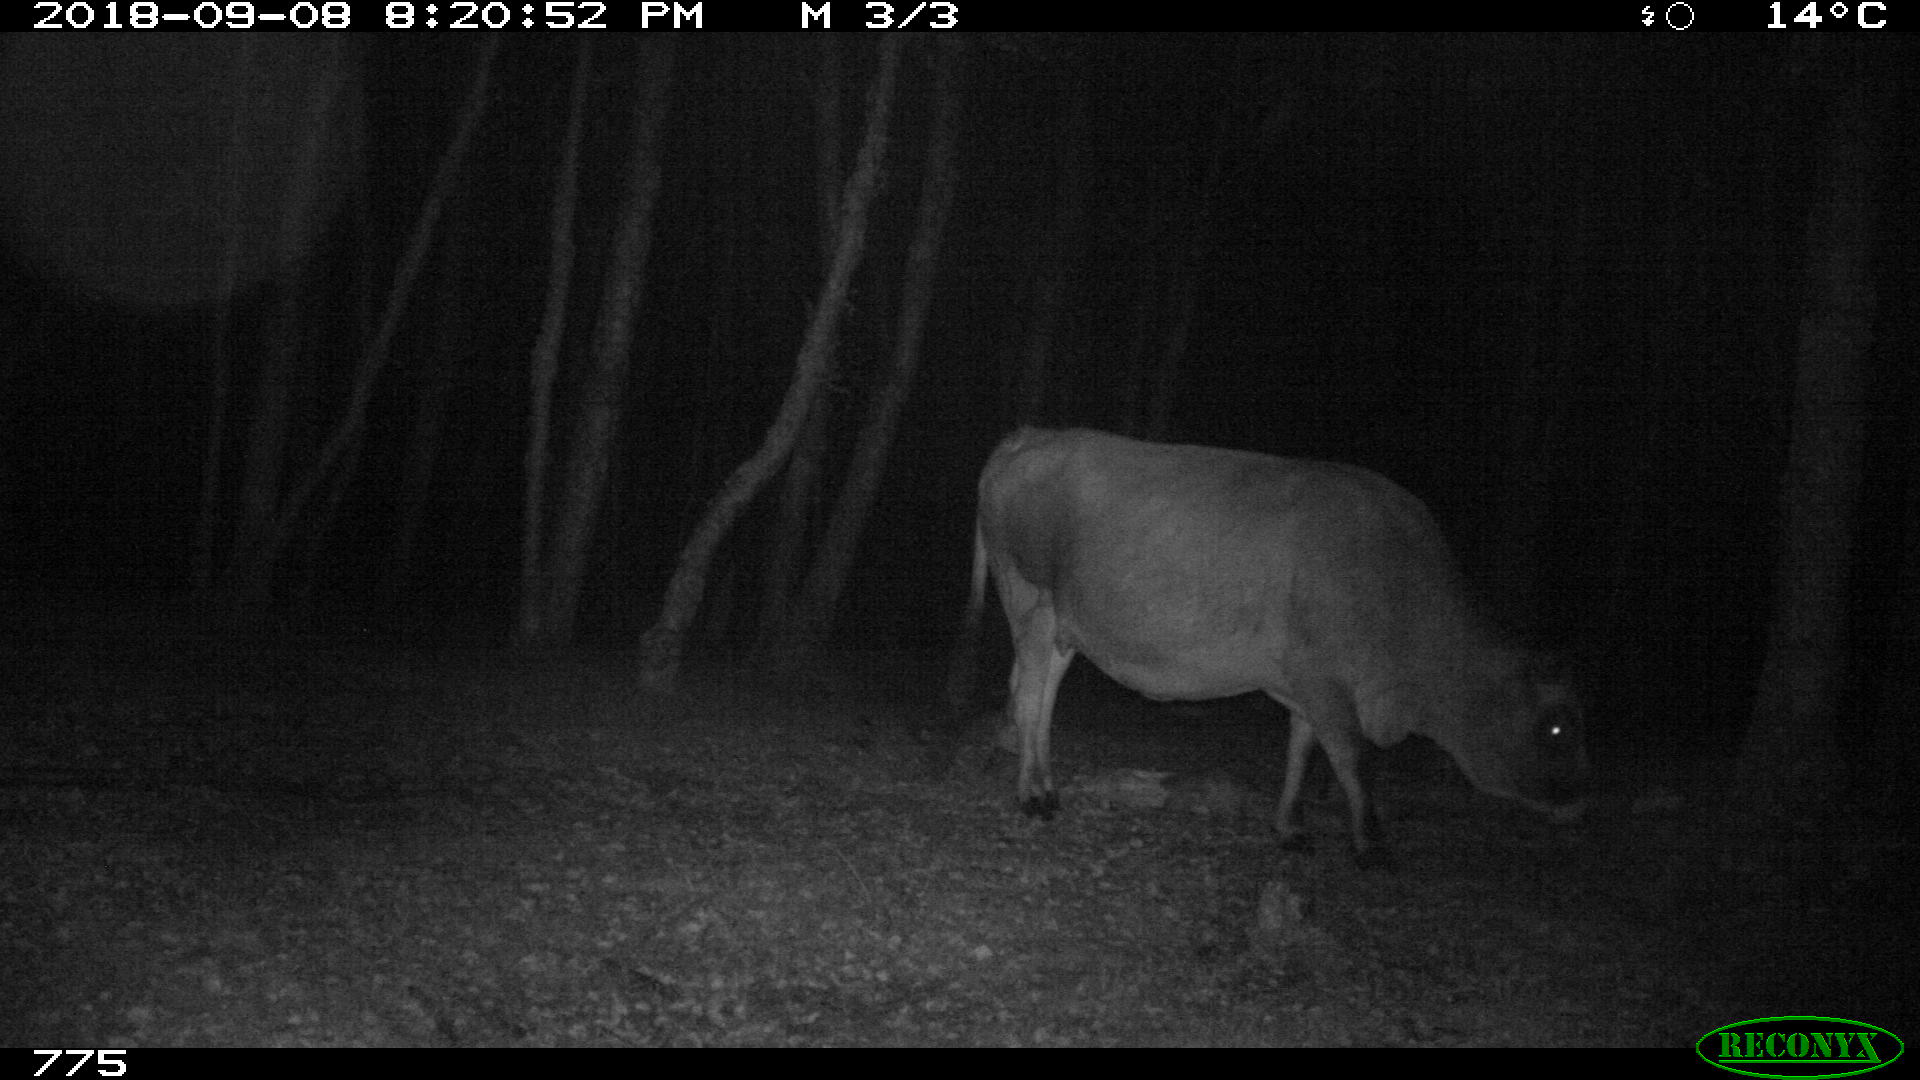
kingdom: Animalia
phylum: Chordata
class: Mammalia
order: Artiodactyla
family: Bovidae
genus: Bos
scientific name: Bos taurus
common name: Domesticated cattle
